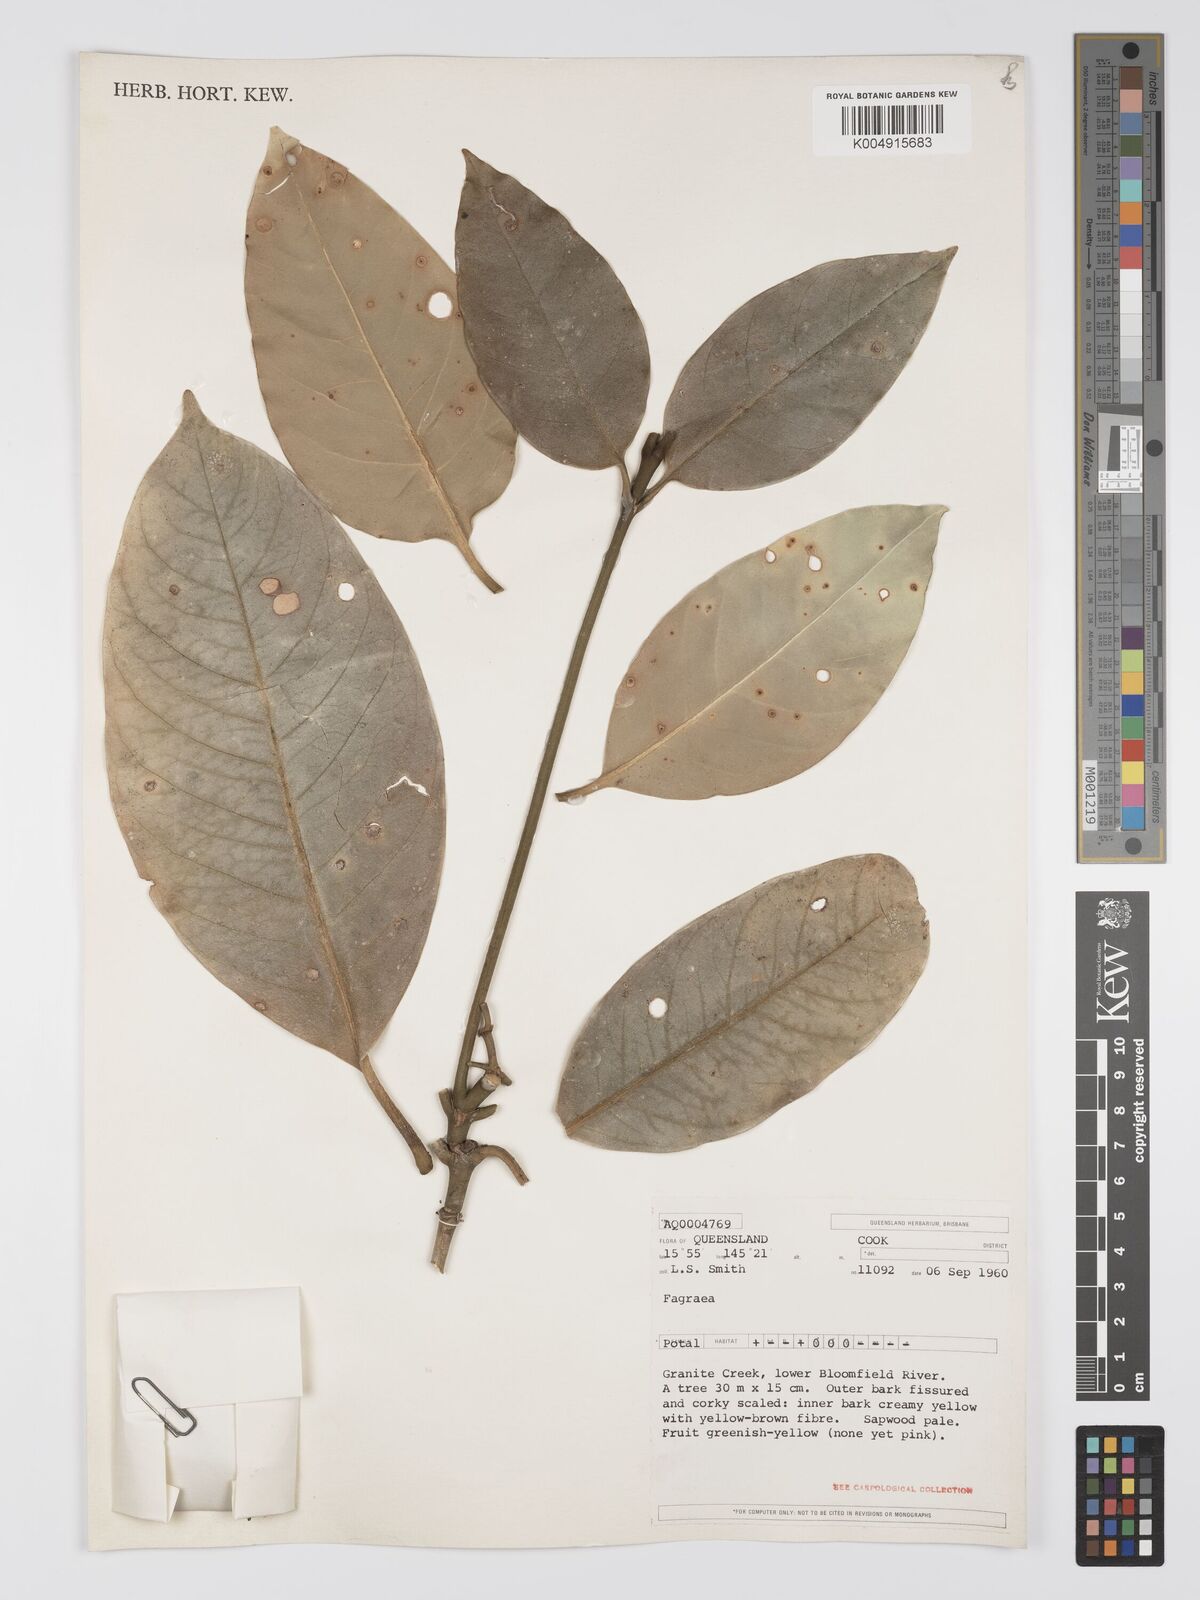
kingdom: Plantae
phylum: Tracheophyta
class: Magnoliopsida
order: Gentianales
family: Gentianaceae
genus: Fagraea
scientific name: Fagraea
